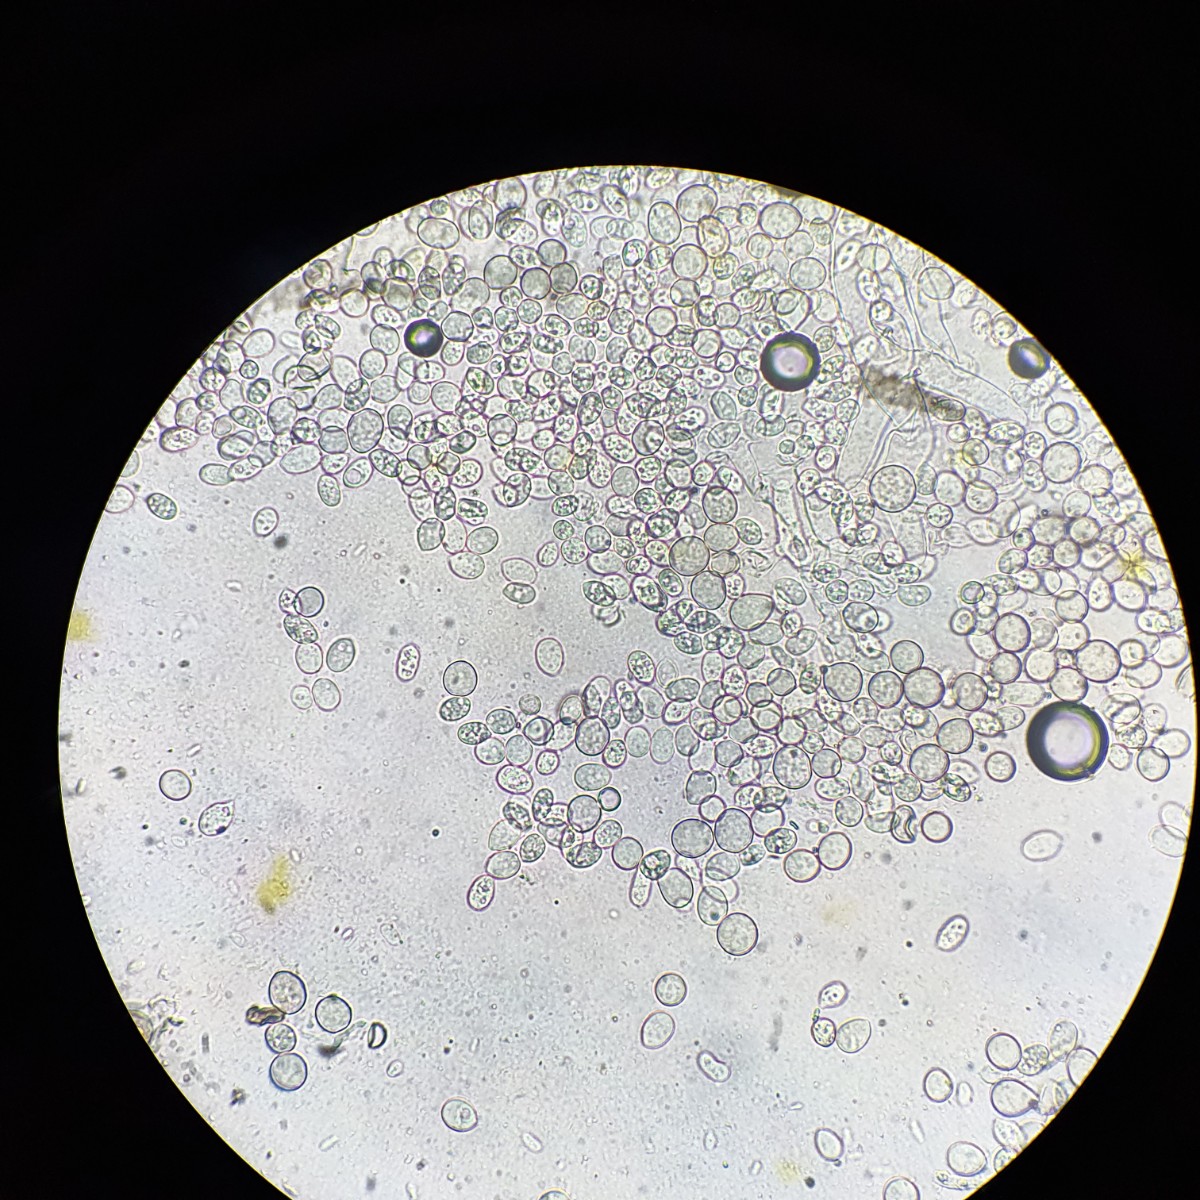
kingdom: Fungi
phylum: Ascomycota
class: Leotiomycetes
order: Helotiales
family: Sclerotiniaceae
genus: Monilinia
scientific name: Monilinia laxa
